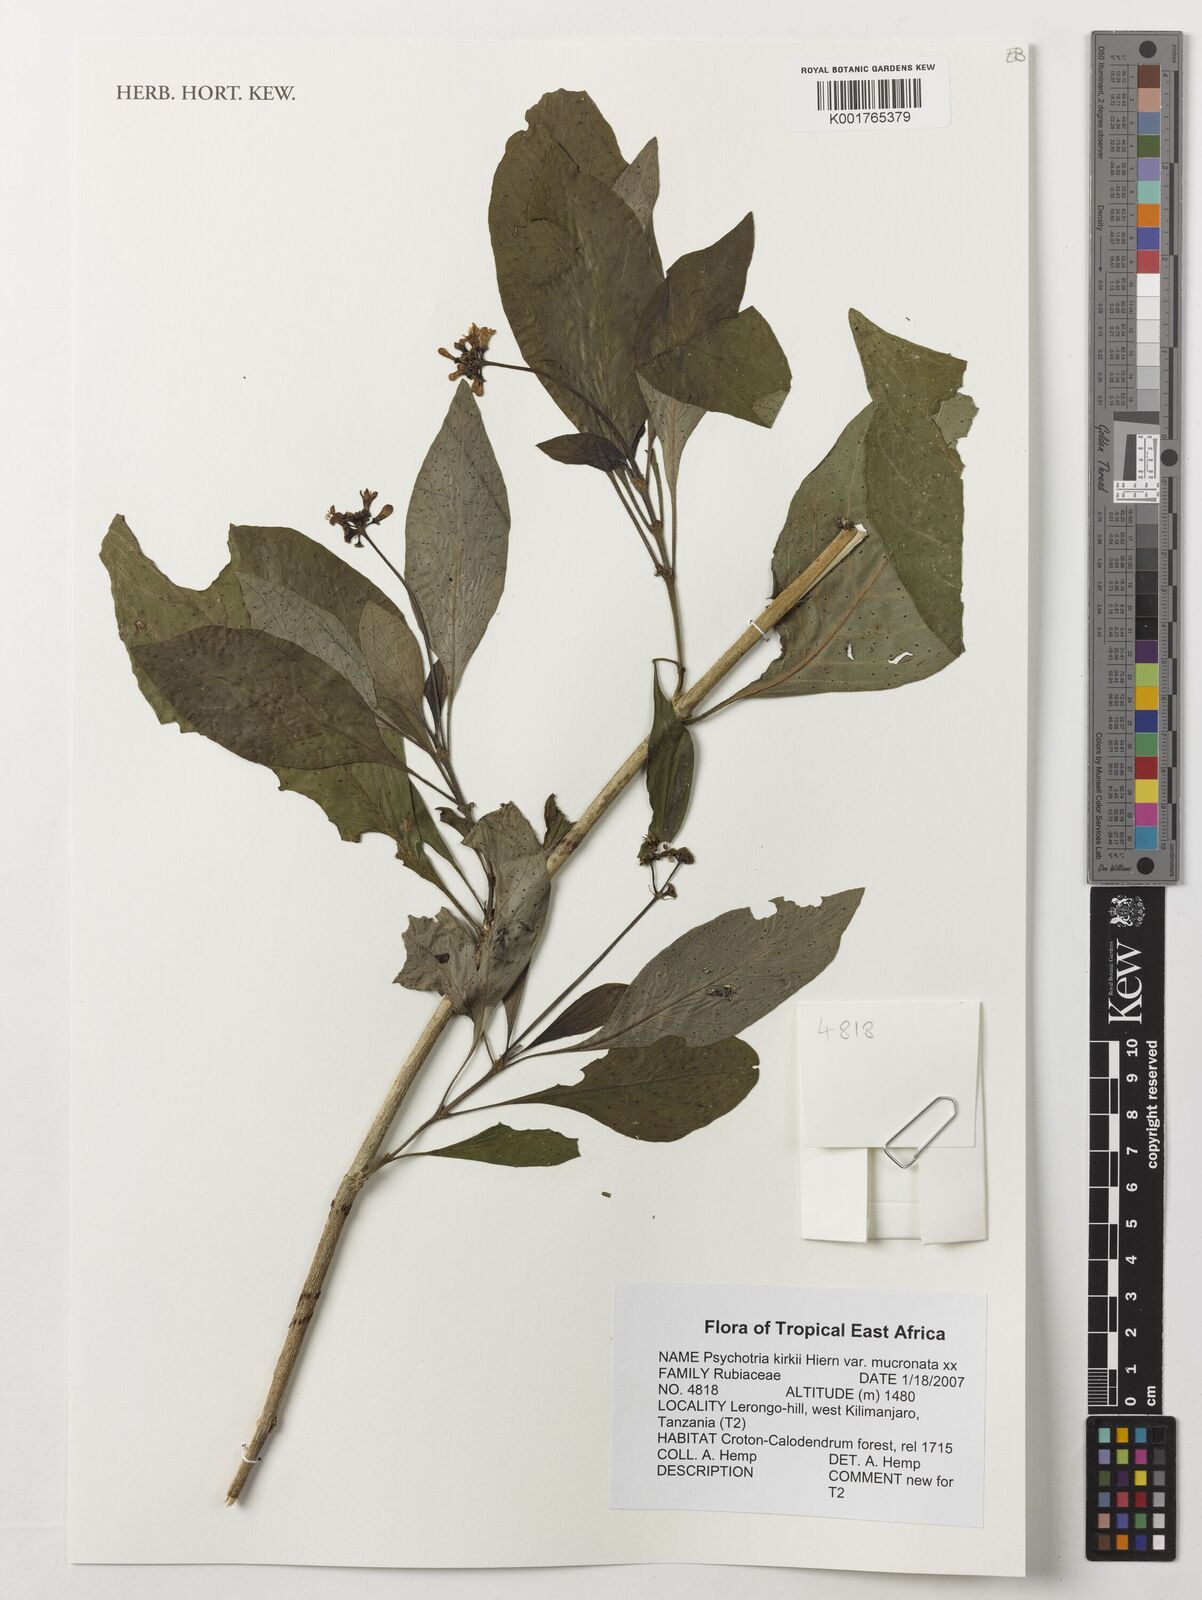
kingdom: Plantae
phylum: Tracheophyta
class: Magnoliopsida
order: Gentianales
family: Rubiaceae
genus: Psychotria
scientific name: Psychotria punctata
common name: Dotted wild coffee
